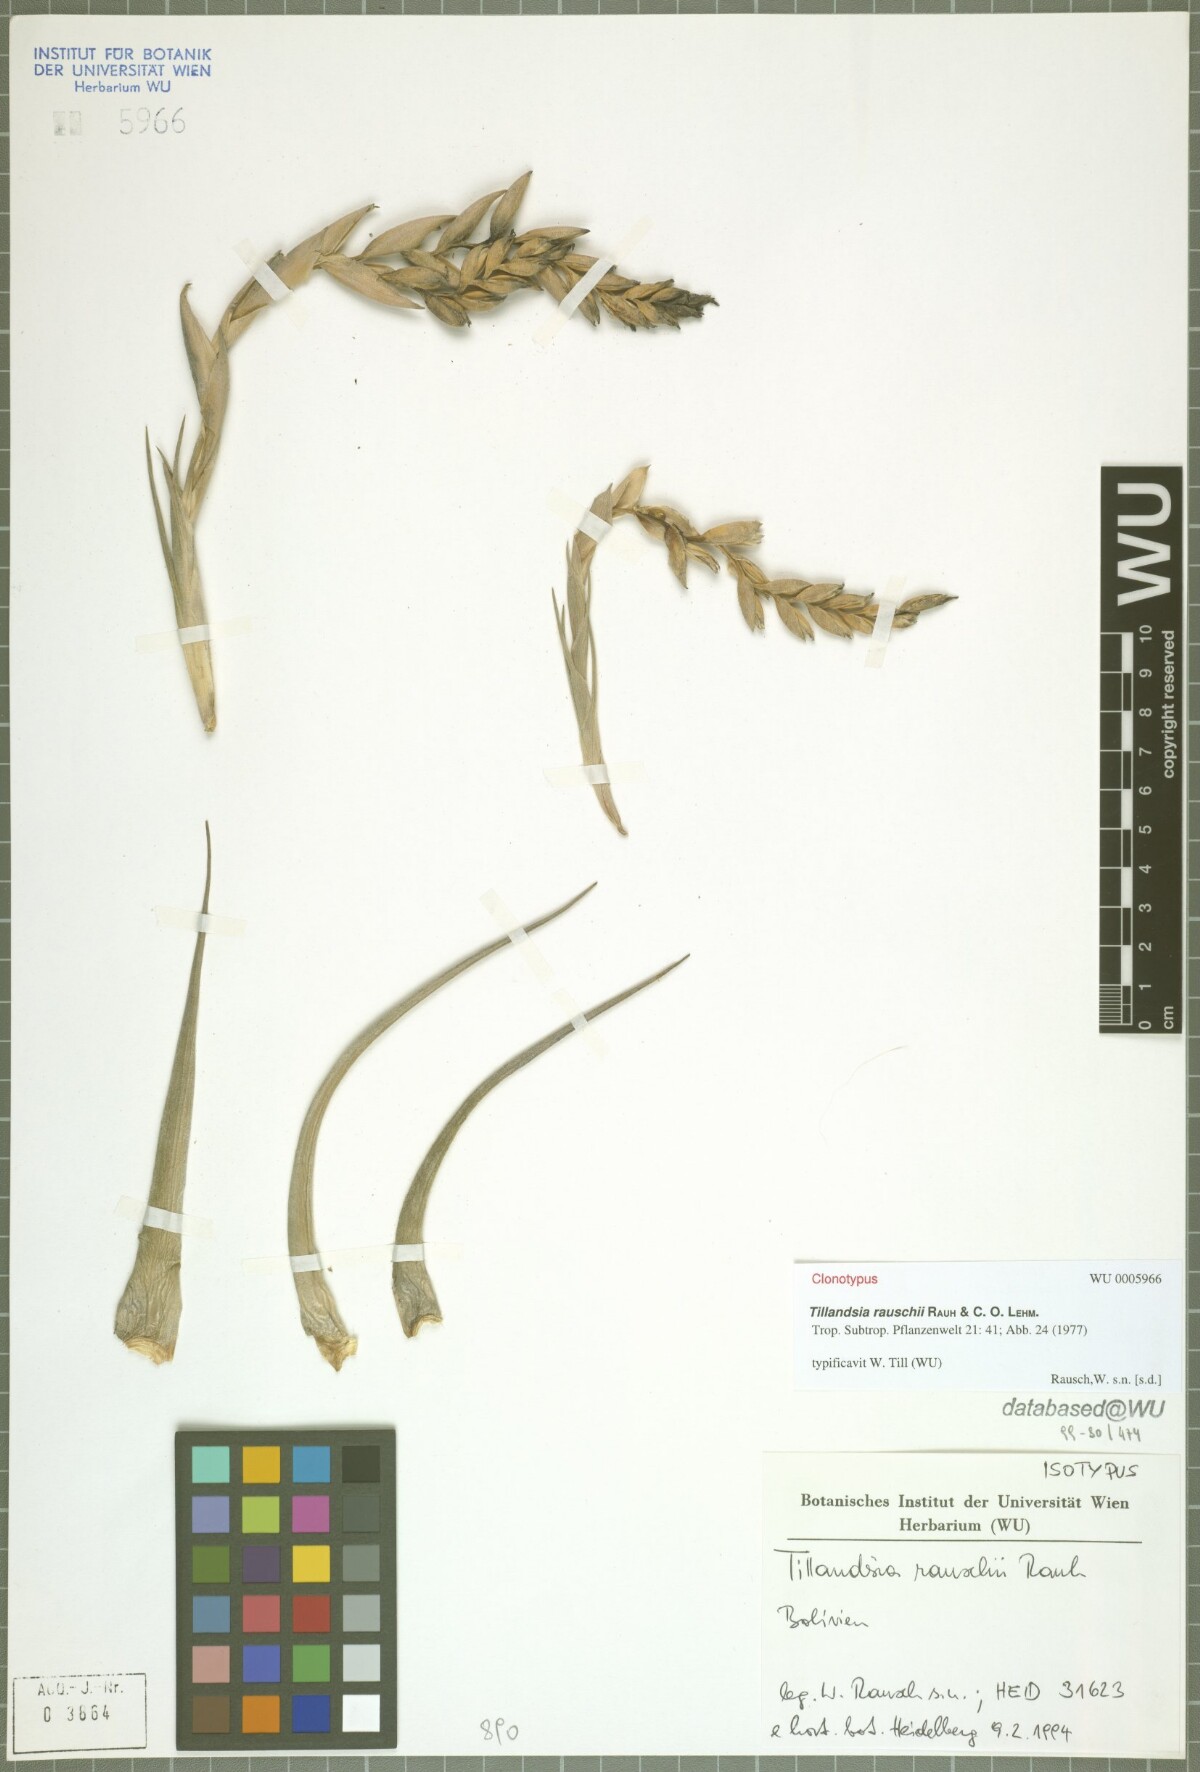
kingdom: Plantae
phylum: Tracheophyta
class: Liliopsida
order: Poales
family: Bromeliaceae
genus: Tillandsia
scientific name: Tillandsia rauschii
